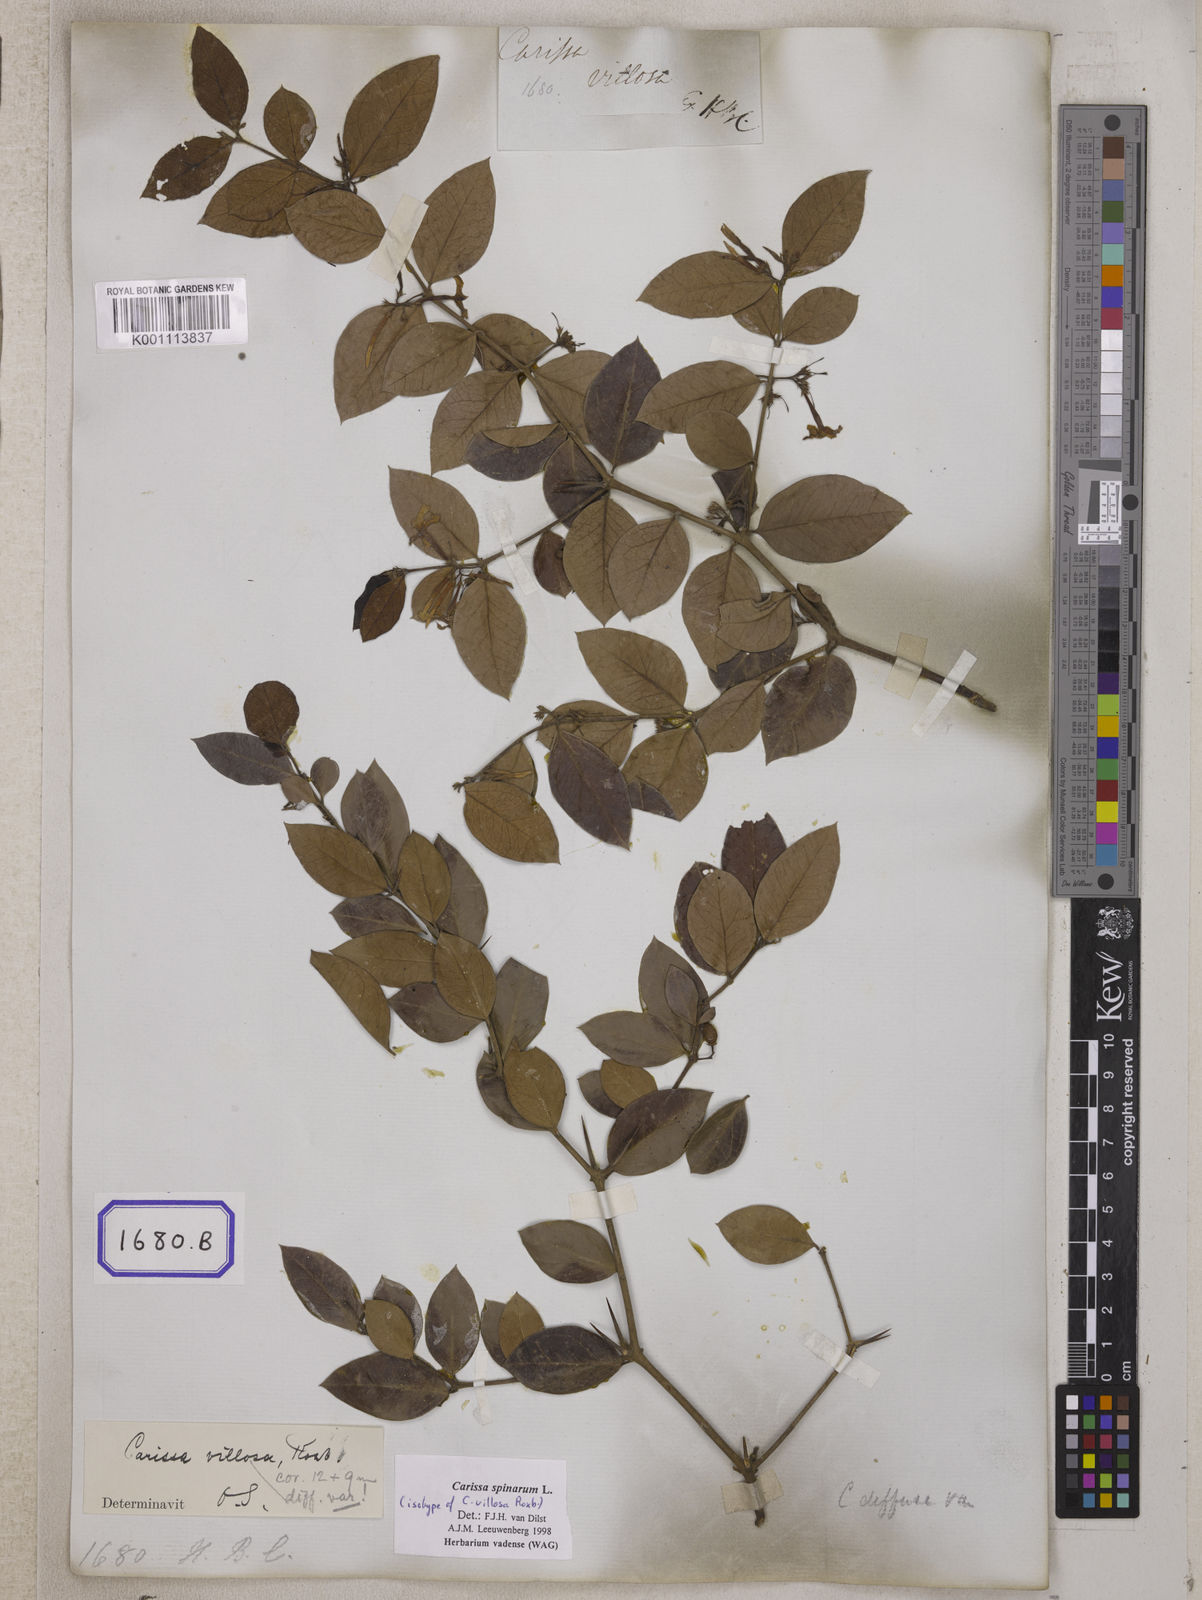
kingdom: Plantae
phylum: Tracheophyta
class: Magnoliopsida
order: Gentianales
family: Apocynaceae
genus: Carissa
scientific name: Carissa spinarum
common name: Egyptian carissa
